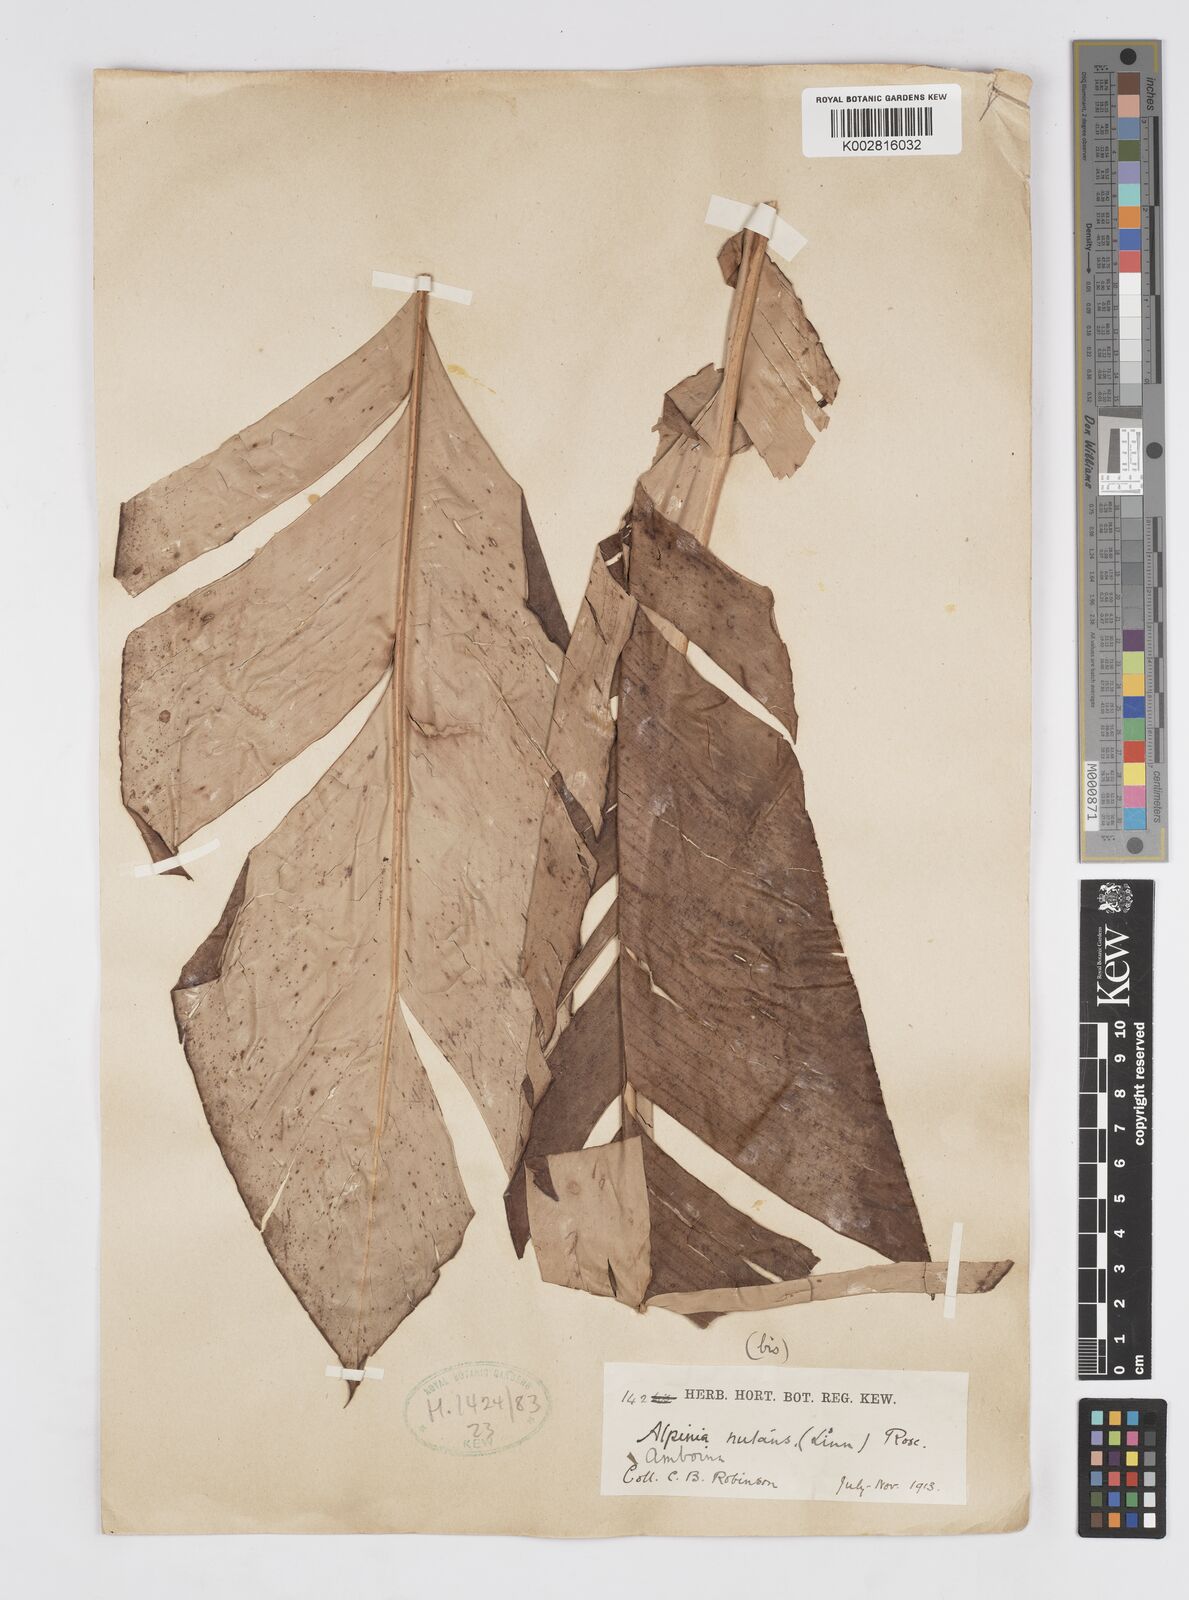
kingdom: Plantae
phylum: Tracheophyta
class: Liliopsida
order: Zingiberales
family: Zingiberaceae
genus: Alpinia
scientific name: Alpinia nutans
